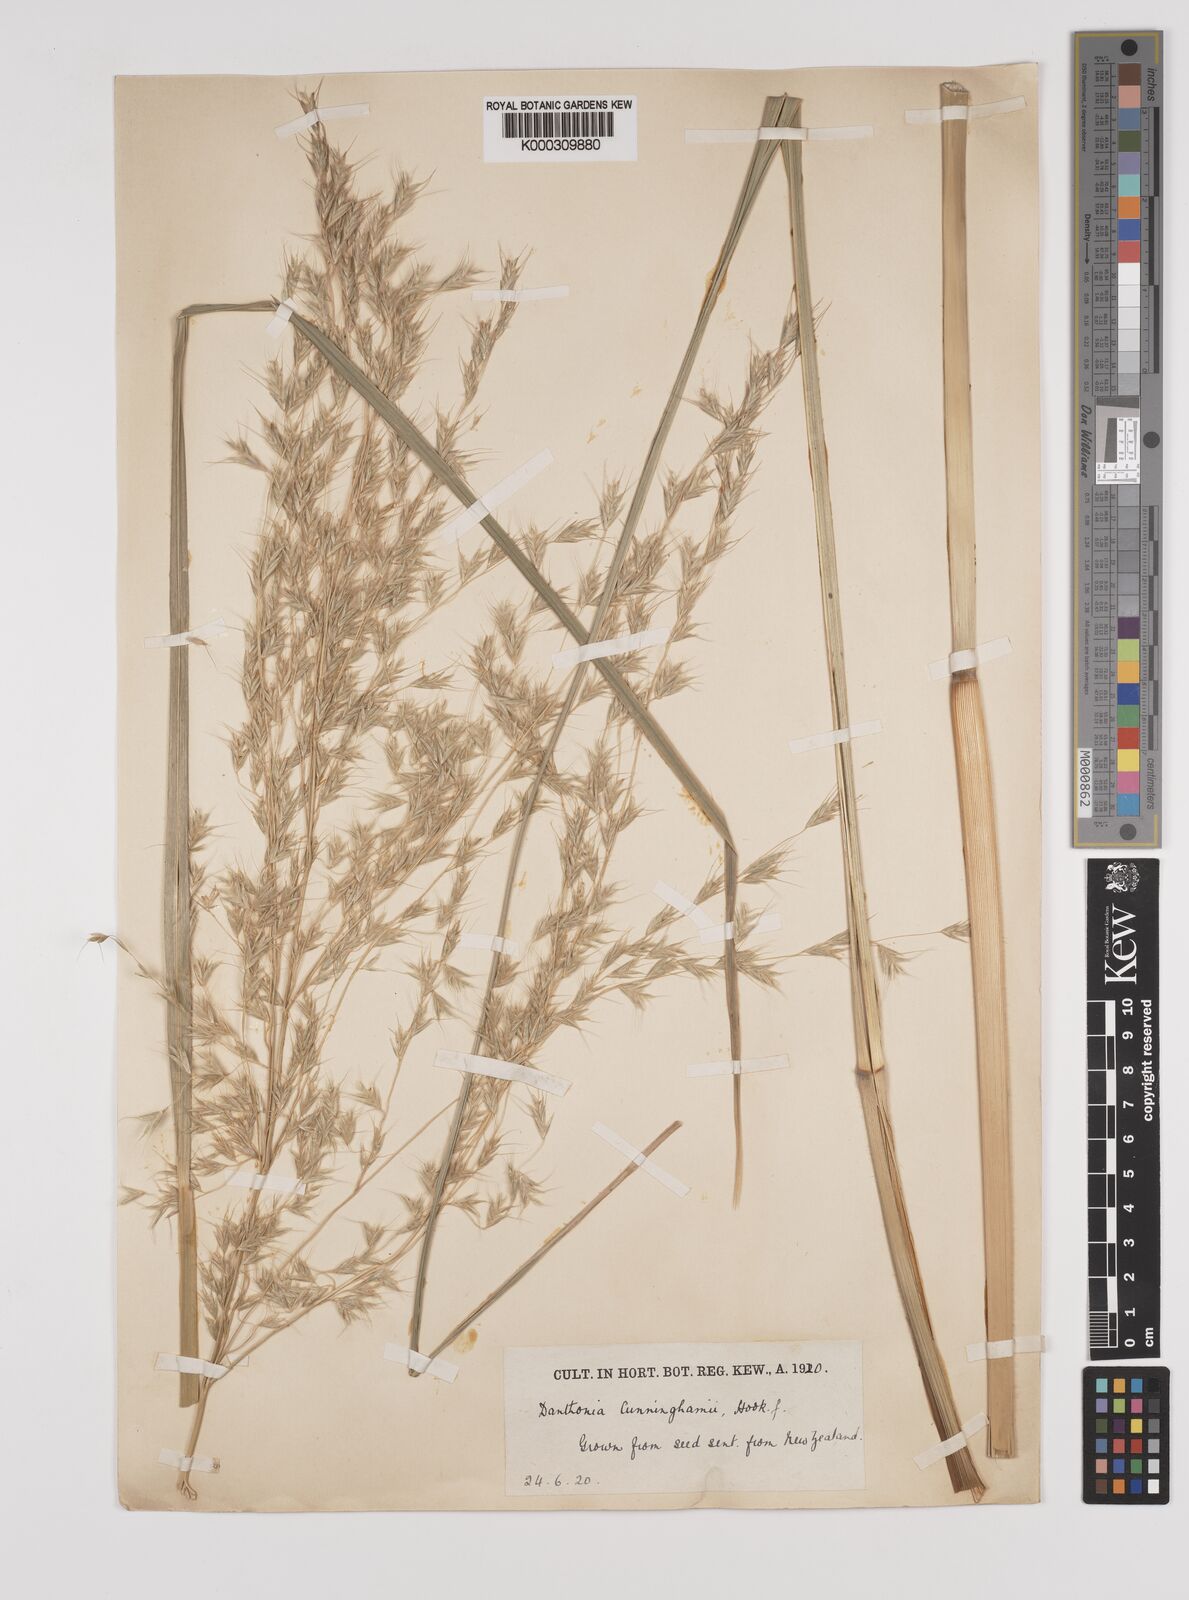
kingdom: Plantae
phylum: Tracheophyta
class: Liliopsida
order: Poales
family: Poaceae
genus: Chionochloa
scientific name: Chionochloa conspicua
